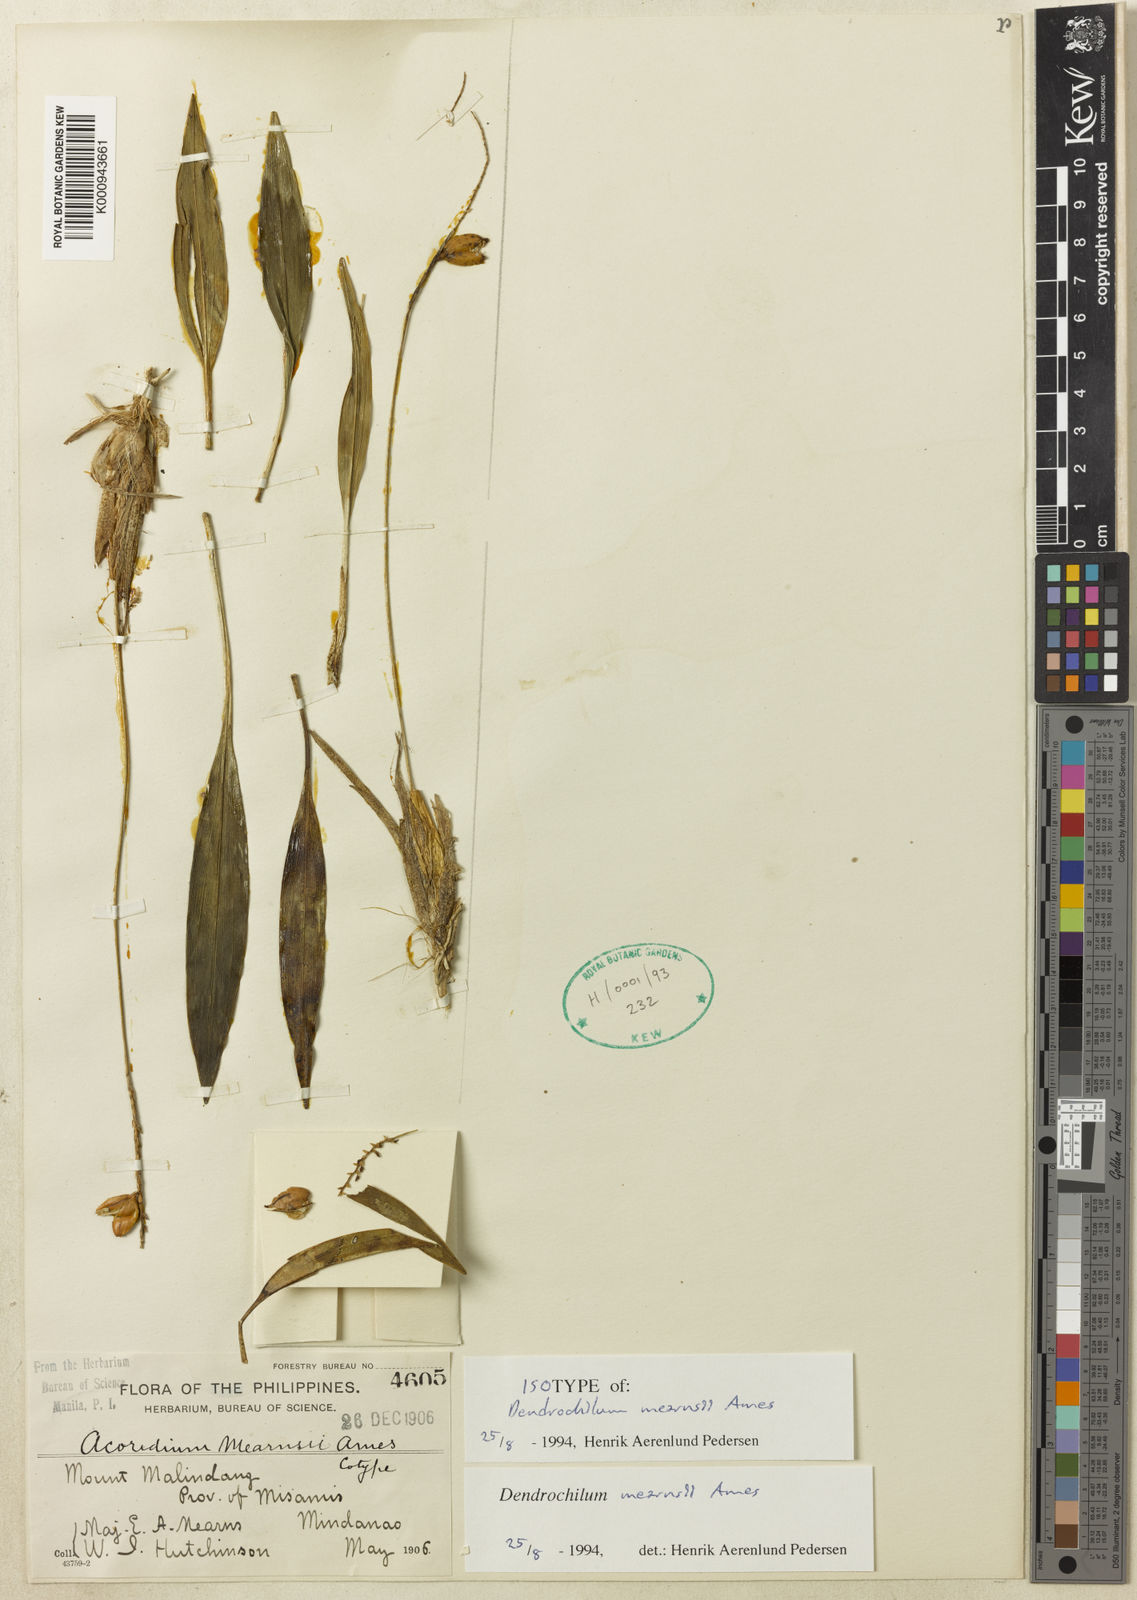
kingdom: Plantae
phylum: Tracheophyta
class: Liliopsida
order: Asparagales
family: Orchidaceae
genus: Coelogyne
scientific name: Coelogyne mearnsii
